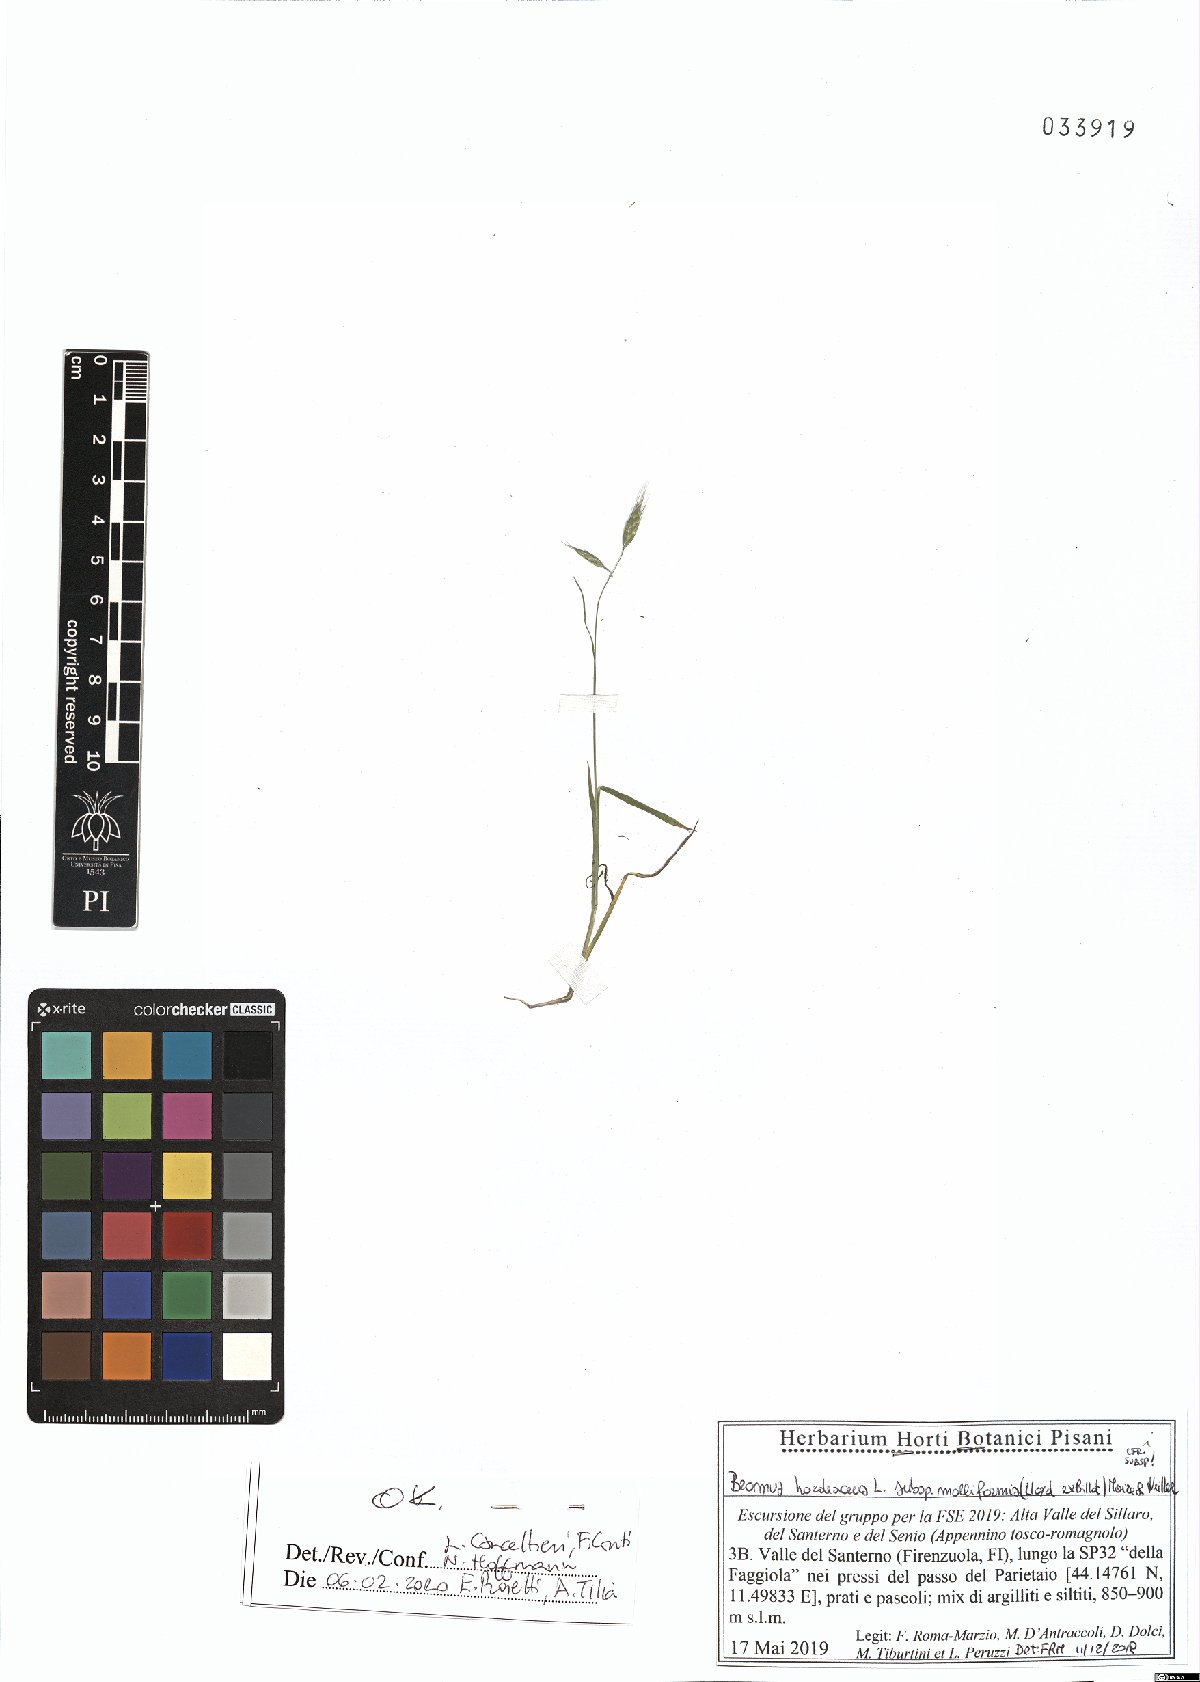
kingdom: Plantae
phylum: Tracheophyta
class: Liliopsida
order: Poales
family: Poaceae
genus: Bromus
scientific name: Bromus hordeaceus
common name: Soft brome
